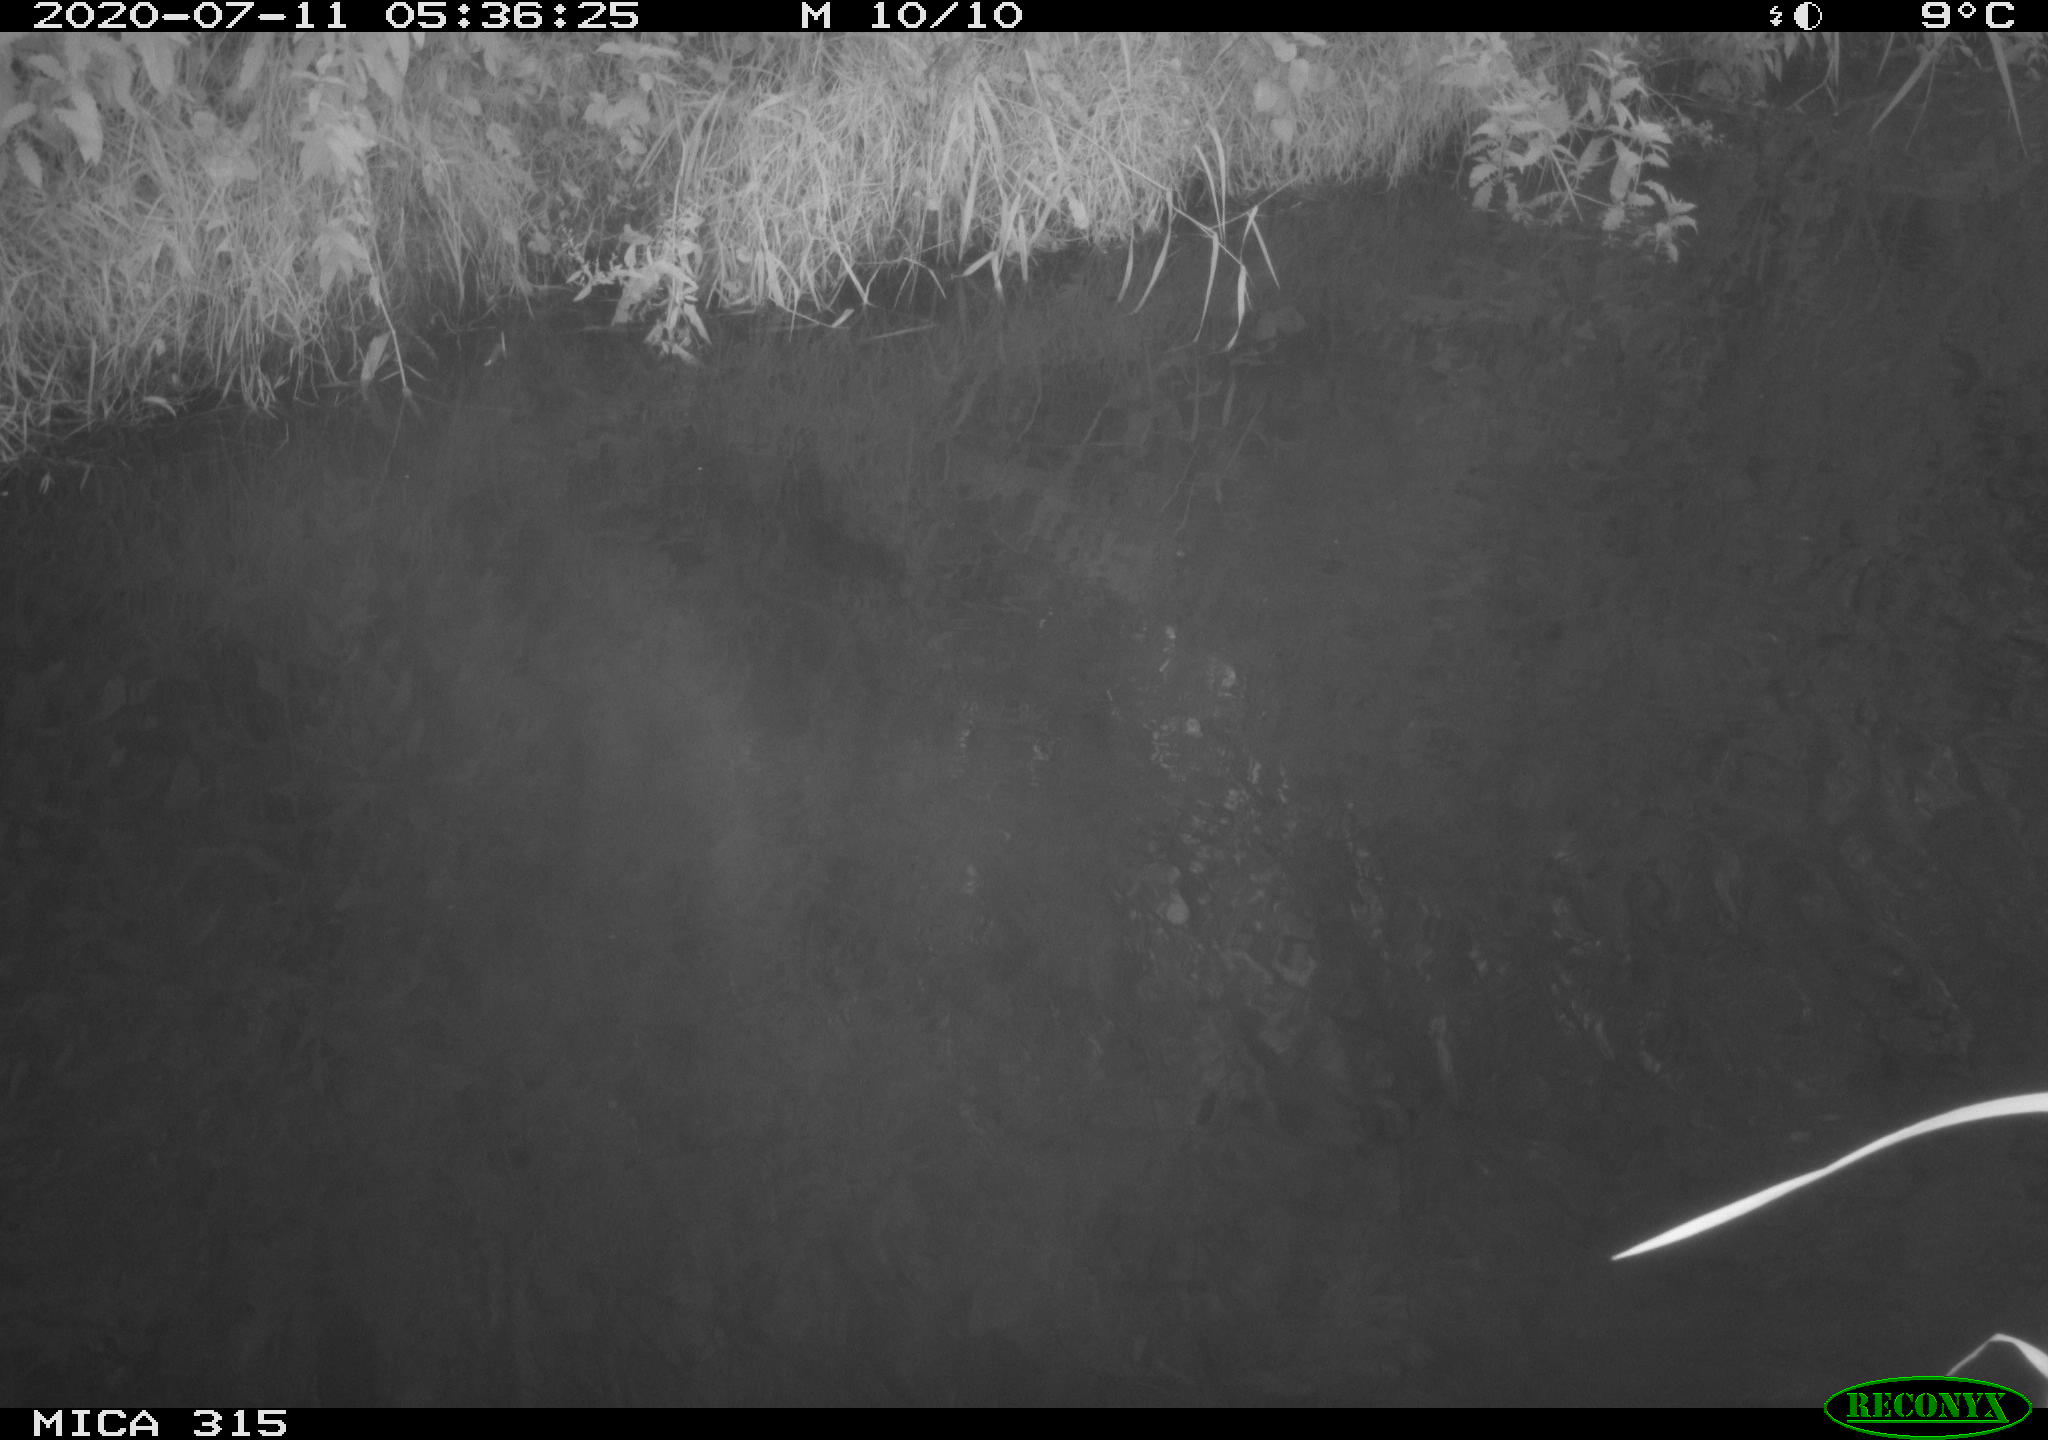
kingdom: Animalia
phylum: Chordata
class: Aves
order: Anseriformes
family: Anatidae
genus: Anas
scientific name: Anas platyrhynchos
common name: Mallard
